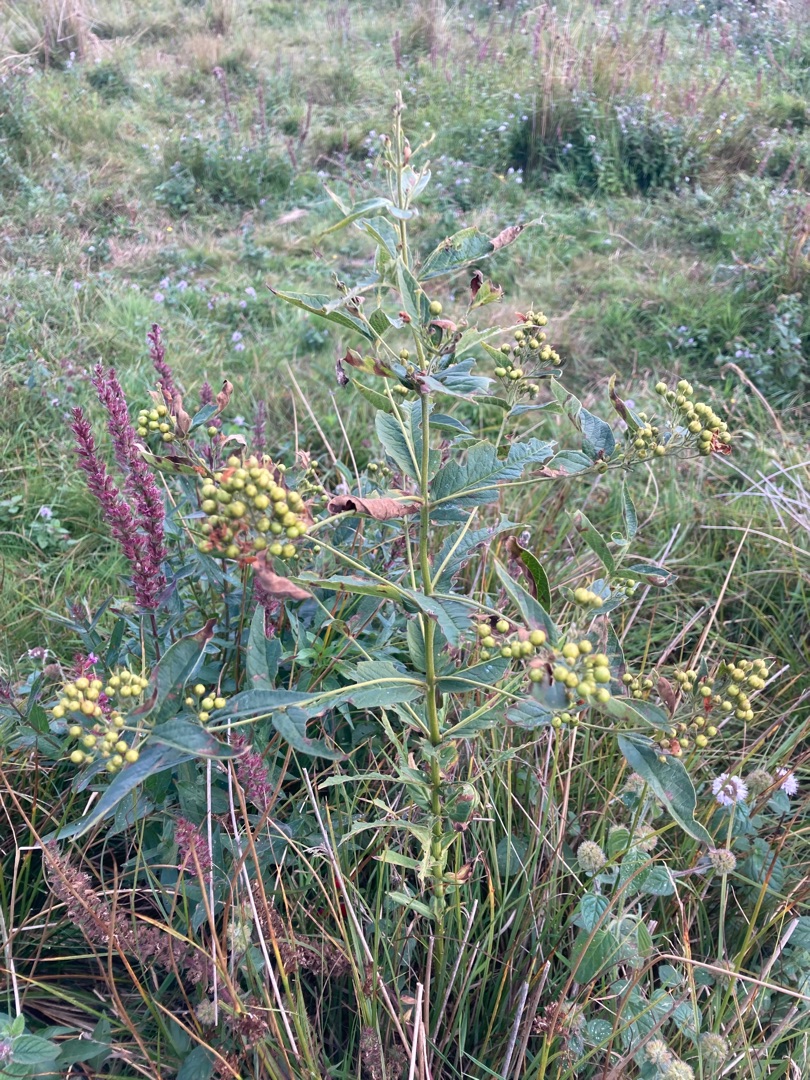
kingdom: Plantae
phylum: Tracheophyta
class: Magnoliopsida
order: Ericales
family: Primulaceae
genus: Lysimachia
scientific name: Lysimachia vulgaris
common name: Almindelig fredløs
